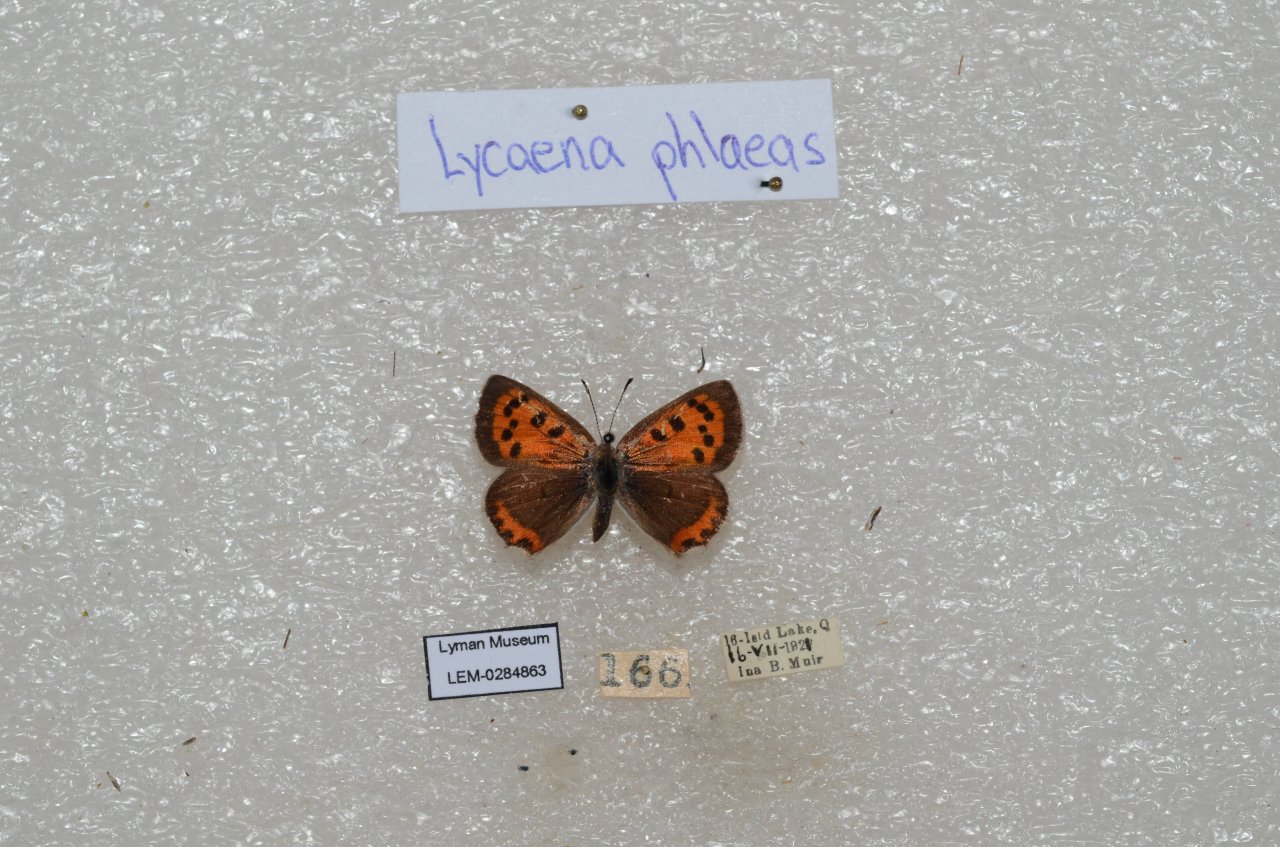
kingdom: Animalia
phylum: Arthropoda
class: Insecta
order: Lepidoptera
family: Lycaenidae
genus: Lycaena
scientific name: Lycaena phlaeas
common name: American Copper
